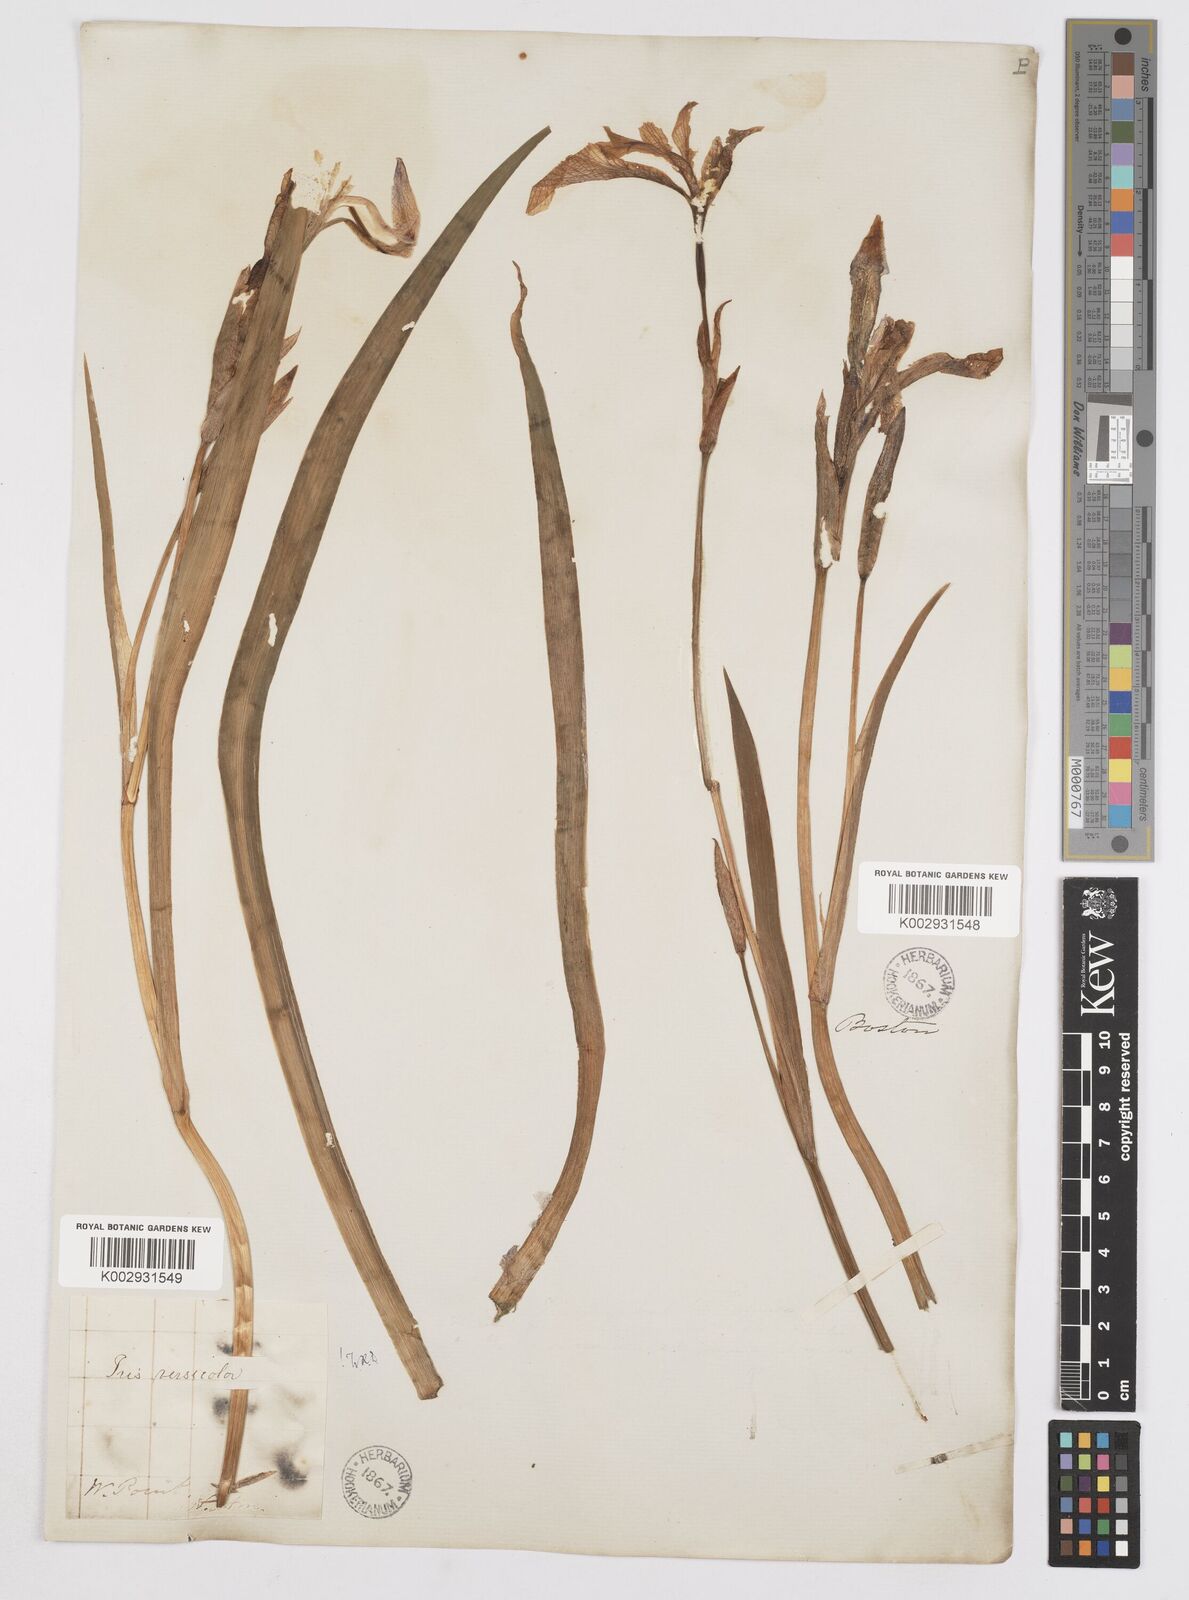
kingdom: Plantae
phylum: Tracheophyta
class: Liliopsida
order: Asparagales
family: Iridaceae
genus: Iris
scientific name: Iris versicolor
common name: Purple iris
